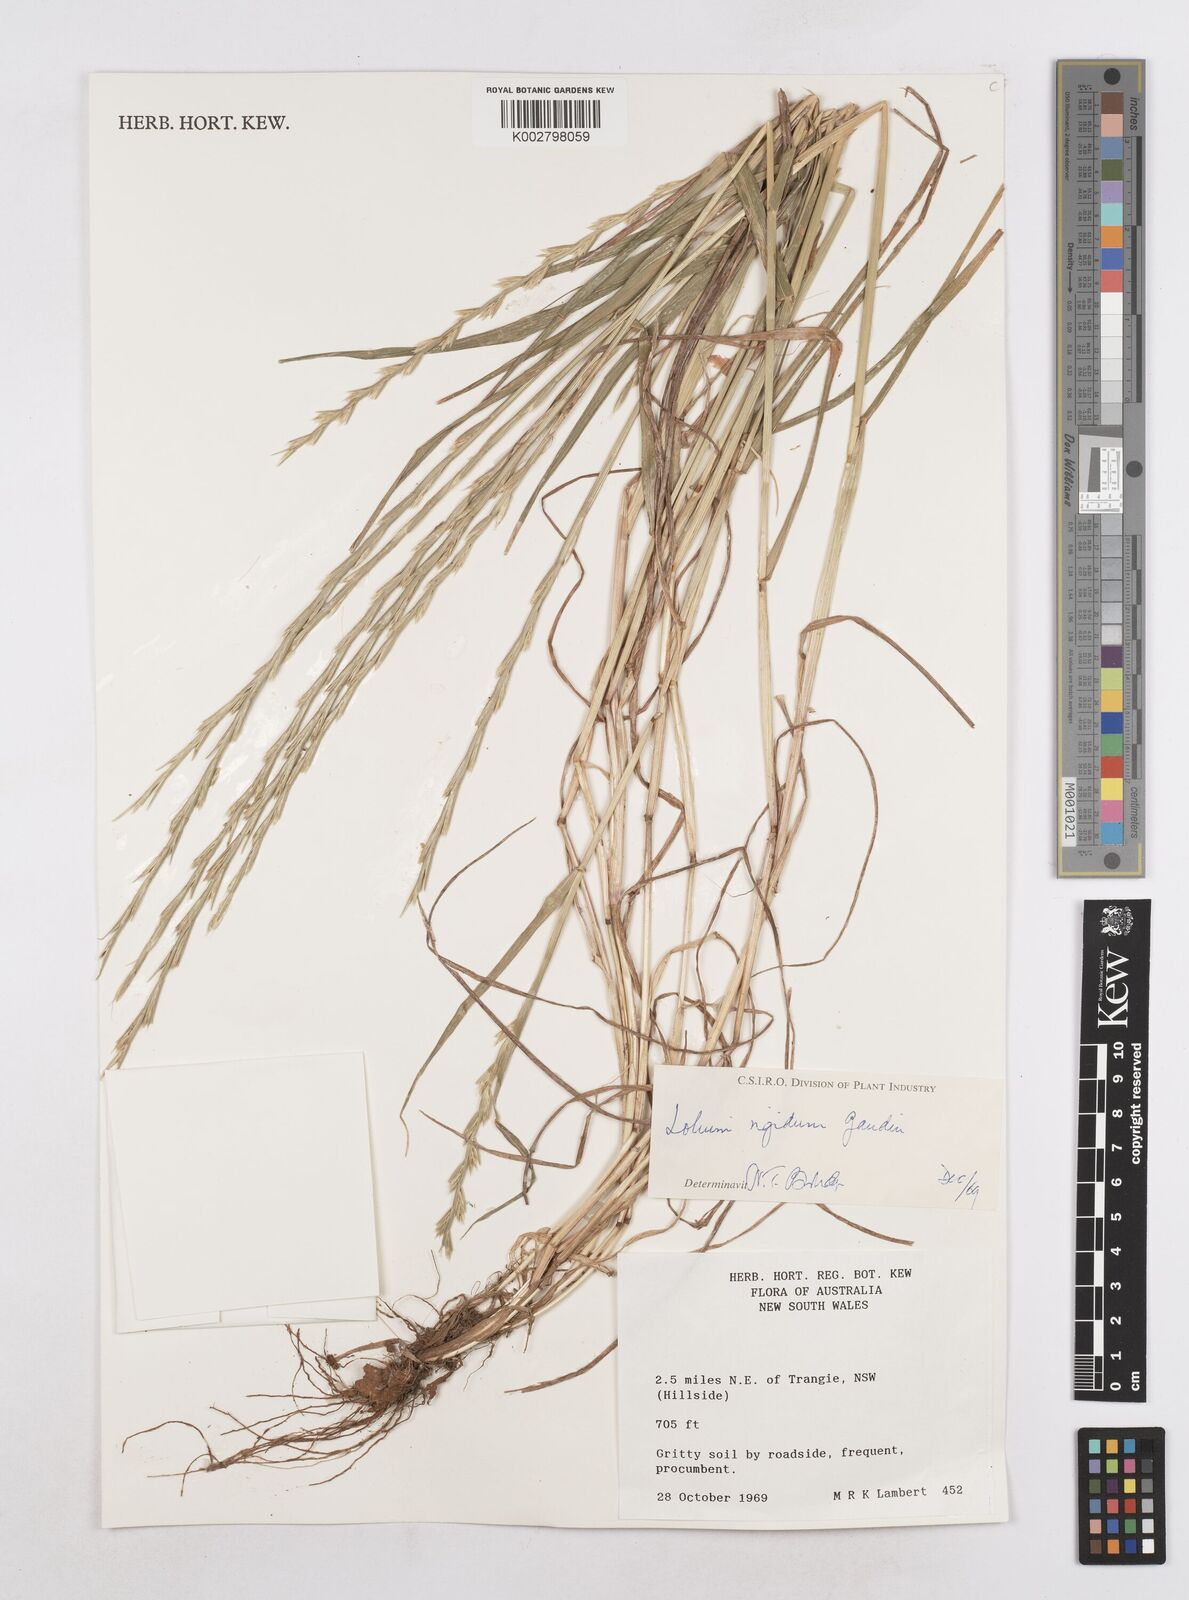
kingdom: Plantae
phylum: Tracheophyta
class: Liliopsida
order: Poales
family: Poaceae
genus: Lolium
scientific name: Lolium
